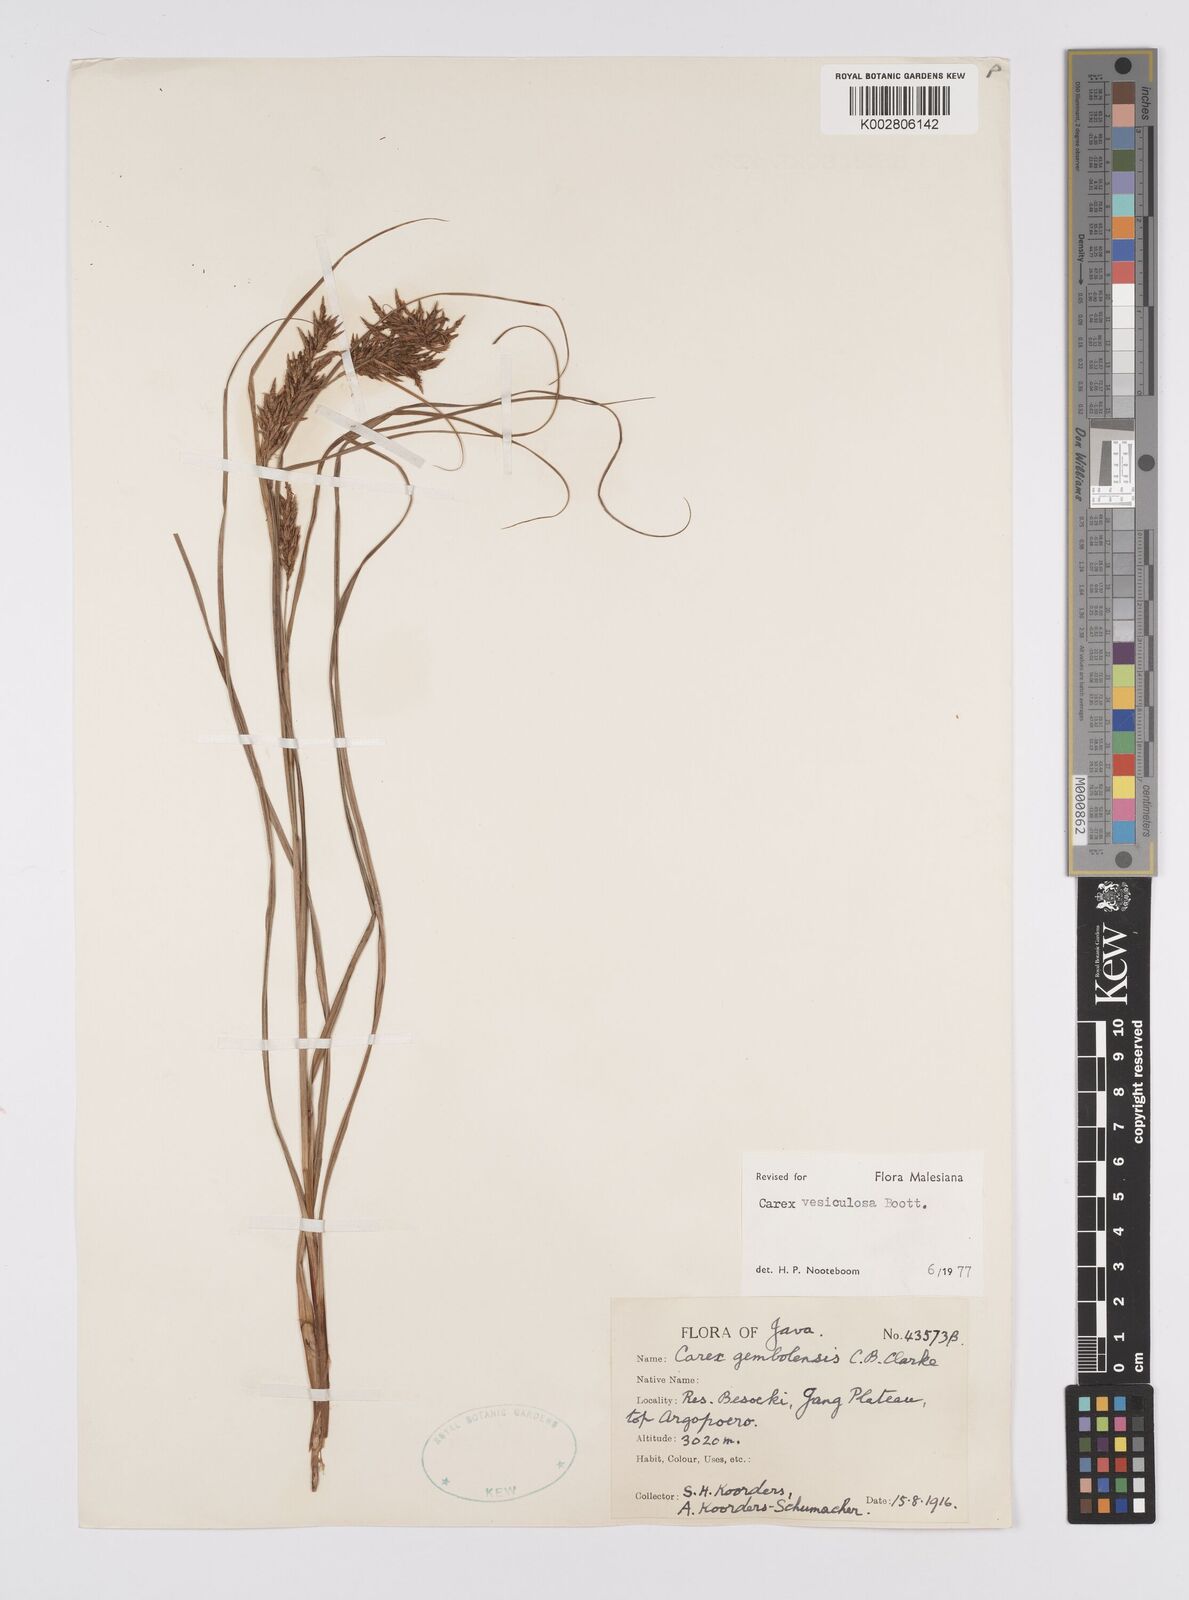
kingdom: Plantae
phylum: Tracheophyta
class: Liliopsida
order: Poales
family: Cyperaceae
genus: Carex
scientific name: Carex vesiculosa
